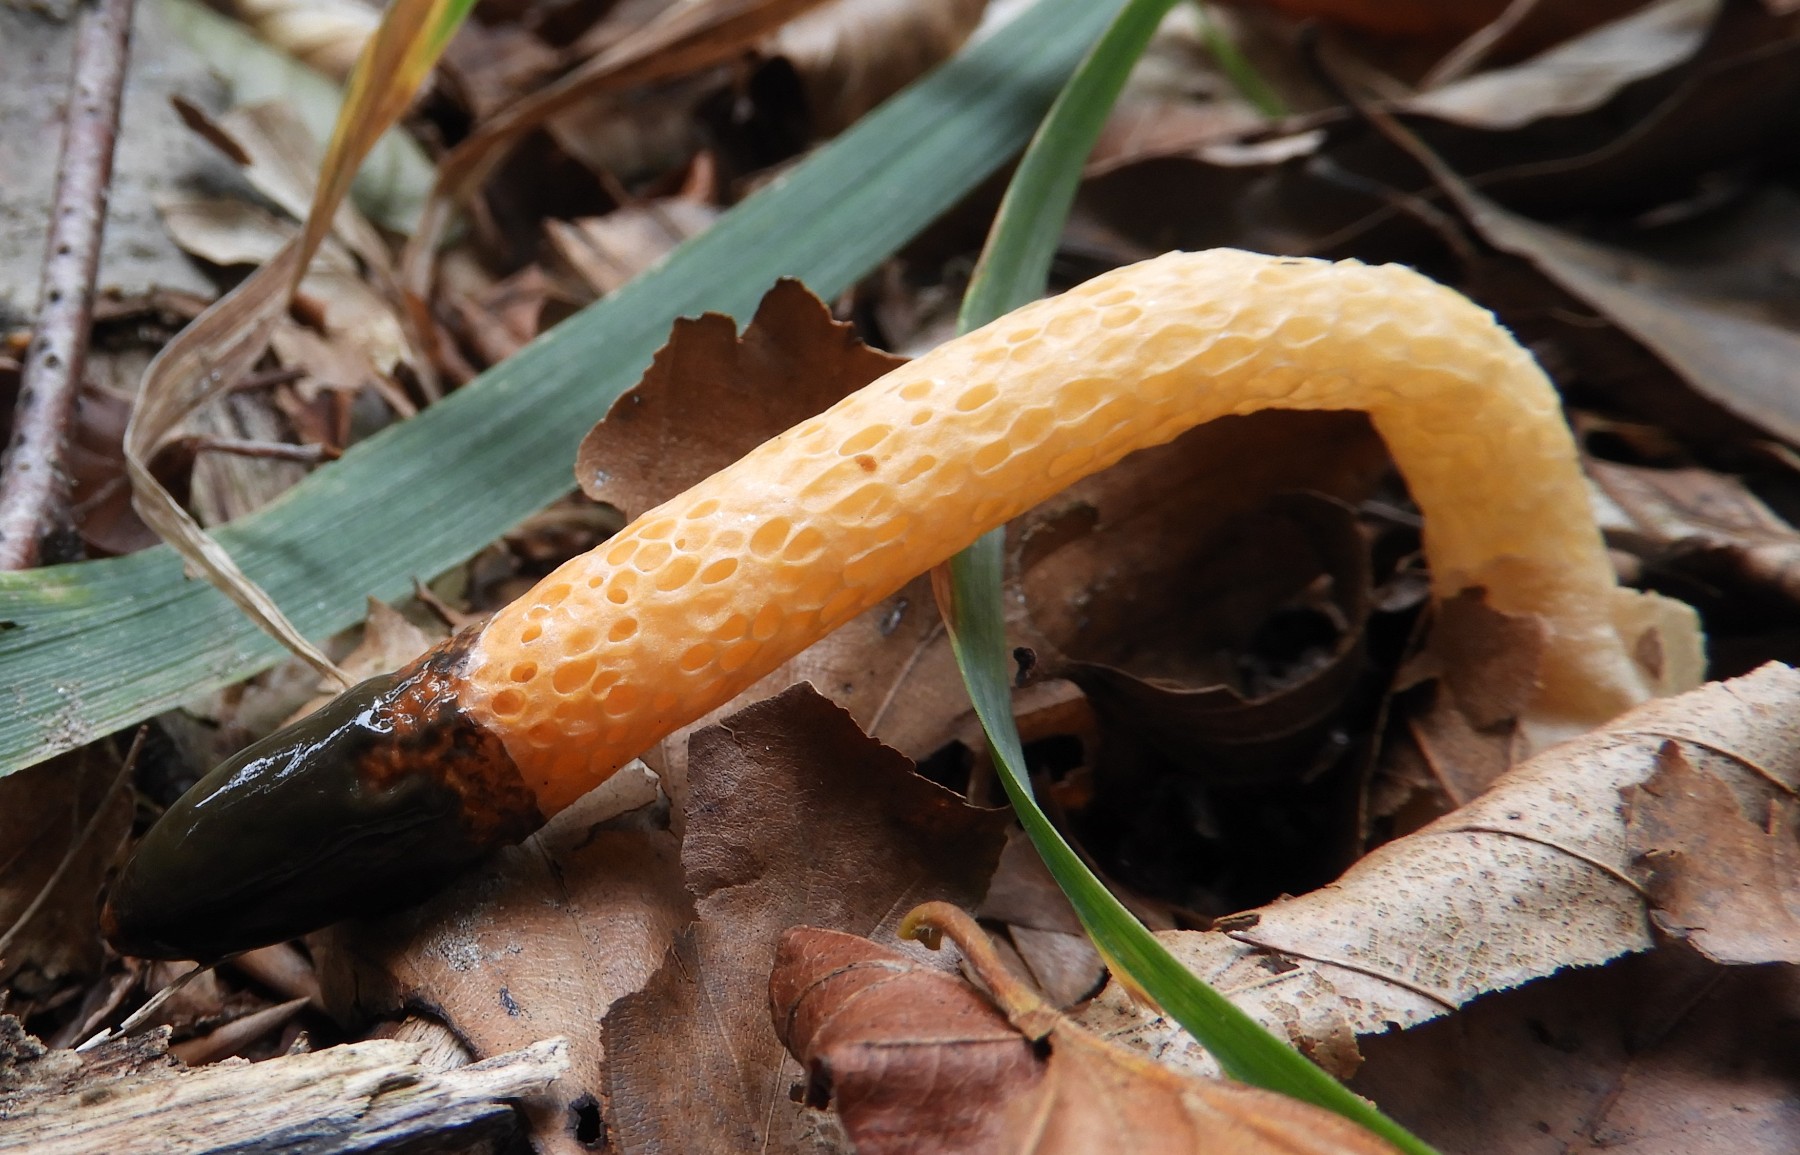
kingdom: Fungi
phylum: Basidiomycota
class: Agaricomycetes
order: Phallales
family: Phallaceae
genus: Mutinus
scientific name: Mutinus caninus
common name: hunde-stinksvamp
